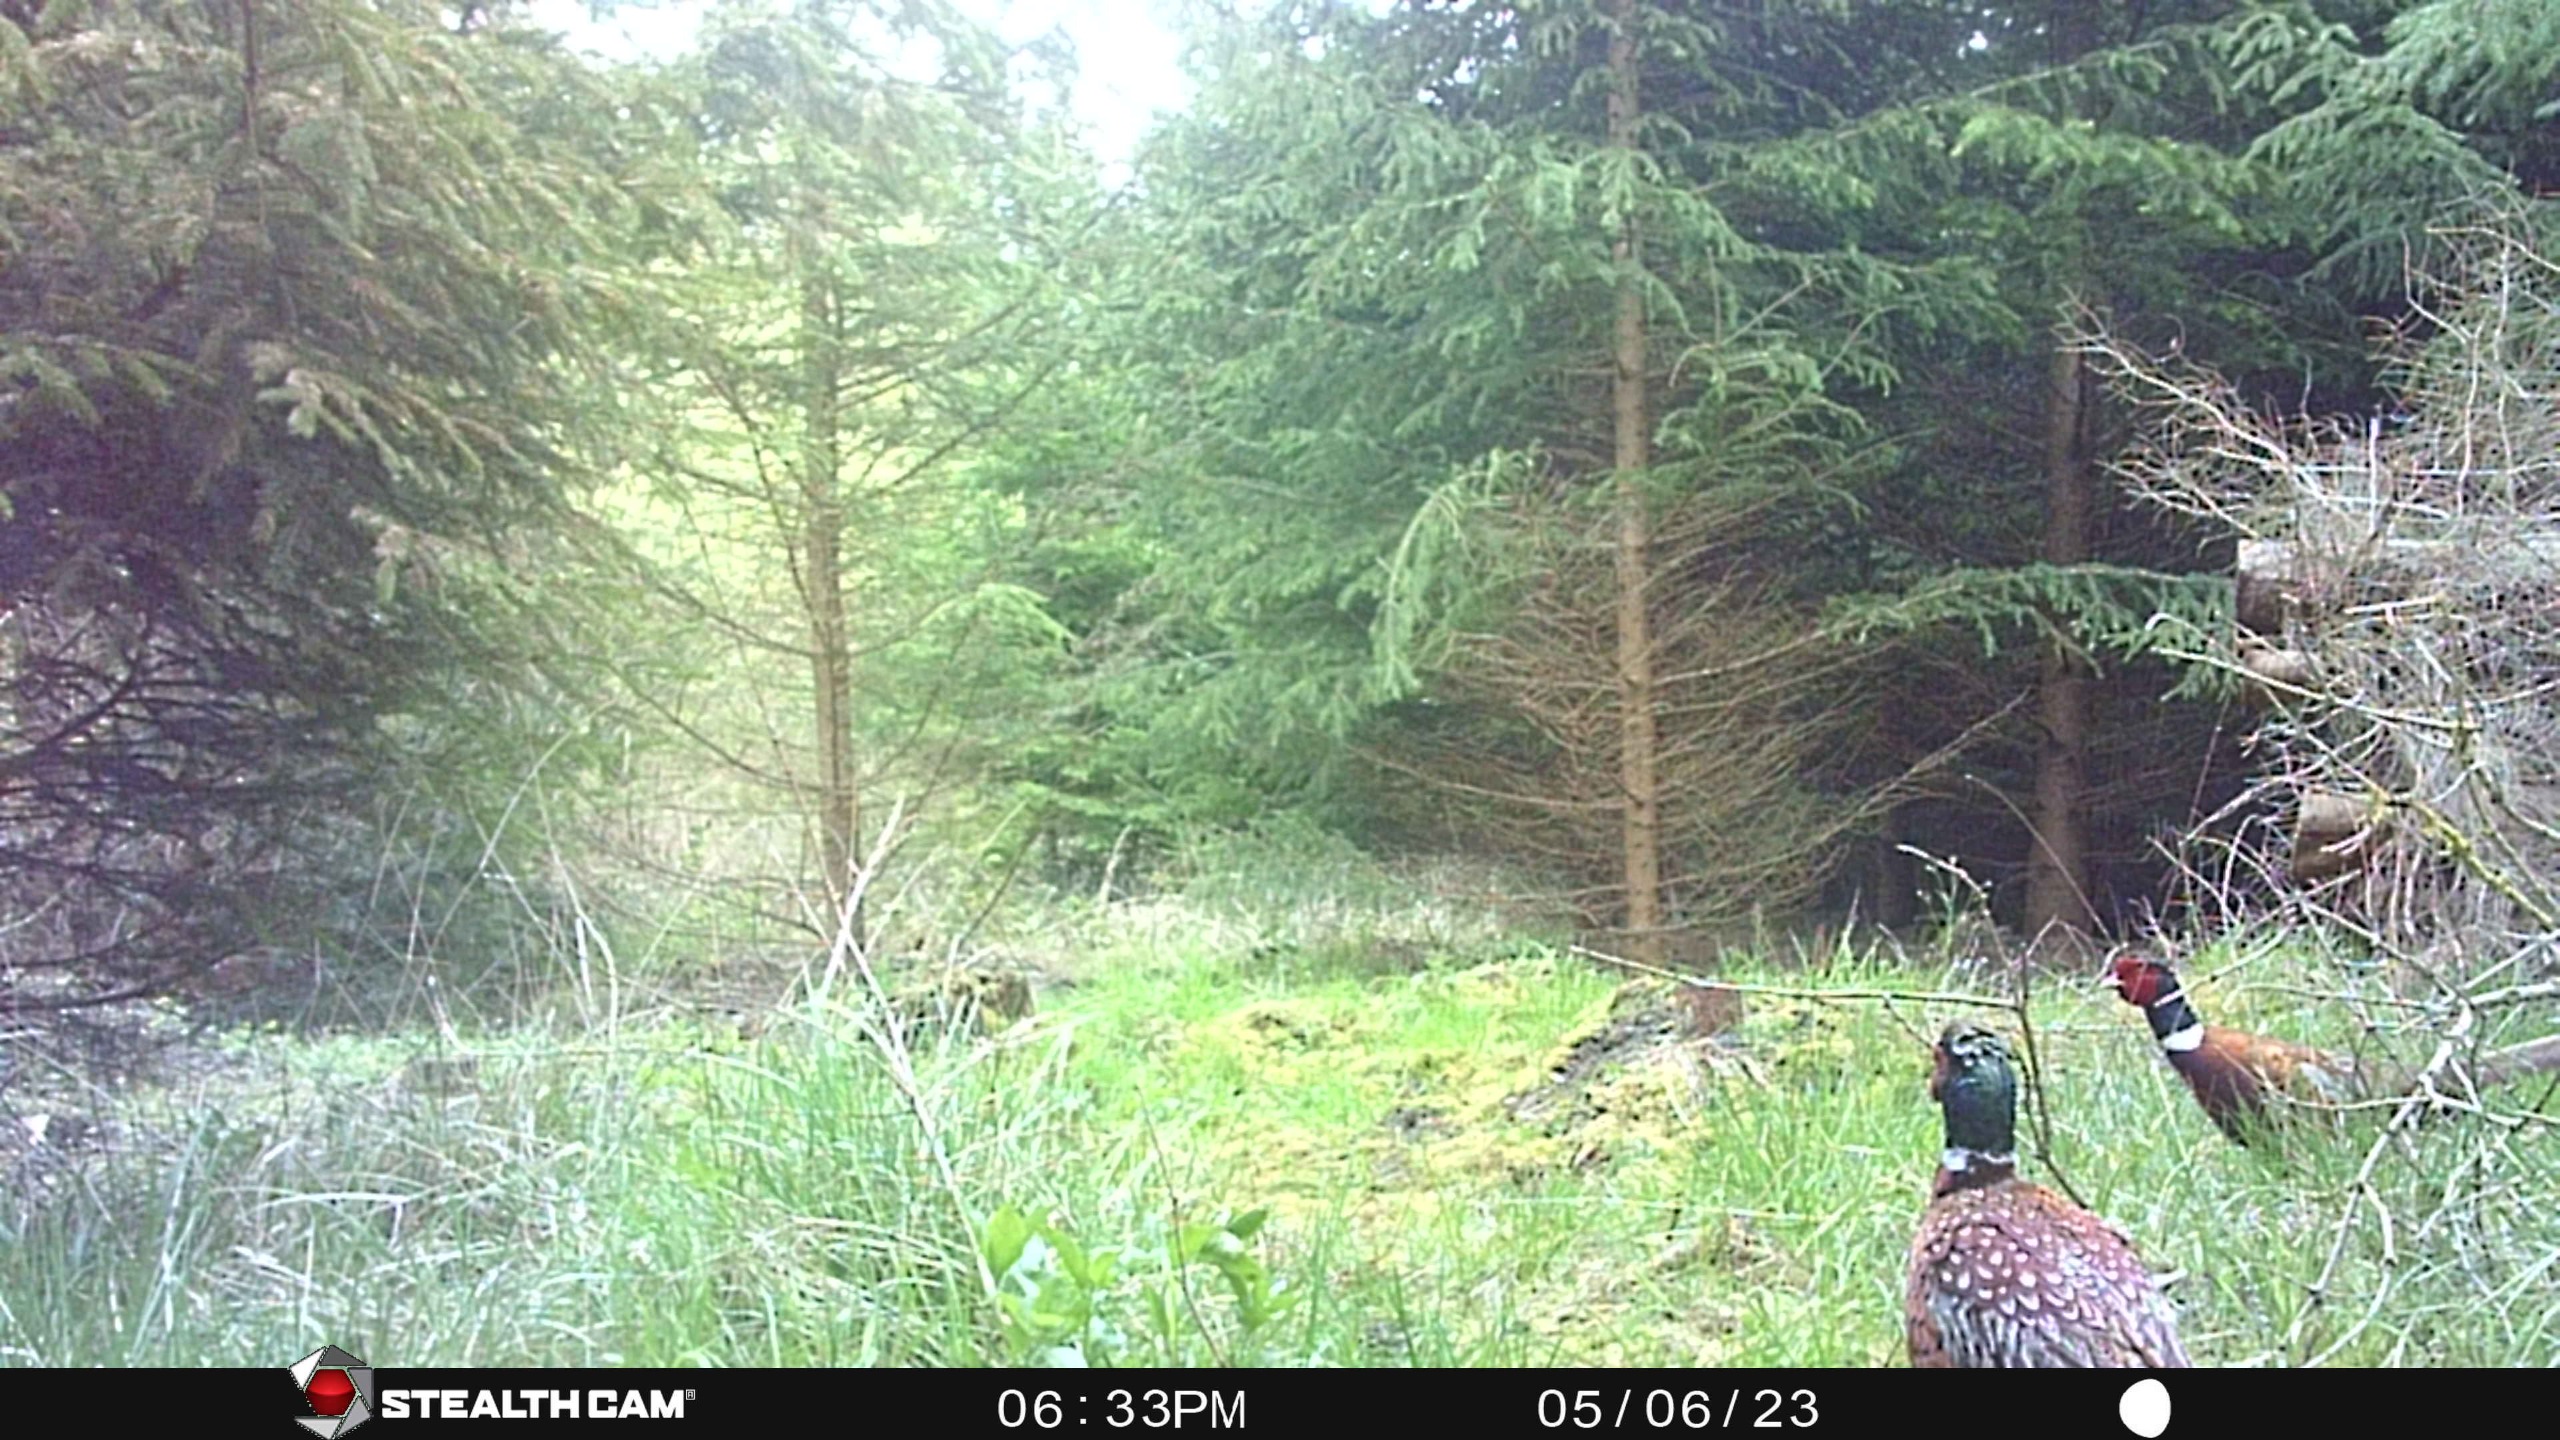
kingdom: Animalia
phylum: Chordata
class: Aves
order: Galliformes
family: Phasianidae
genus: Phasianus
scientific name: Phasianus colchicus
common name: Fasan
